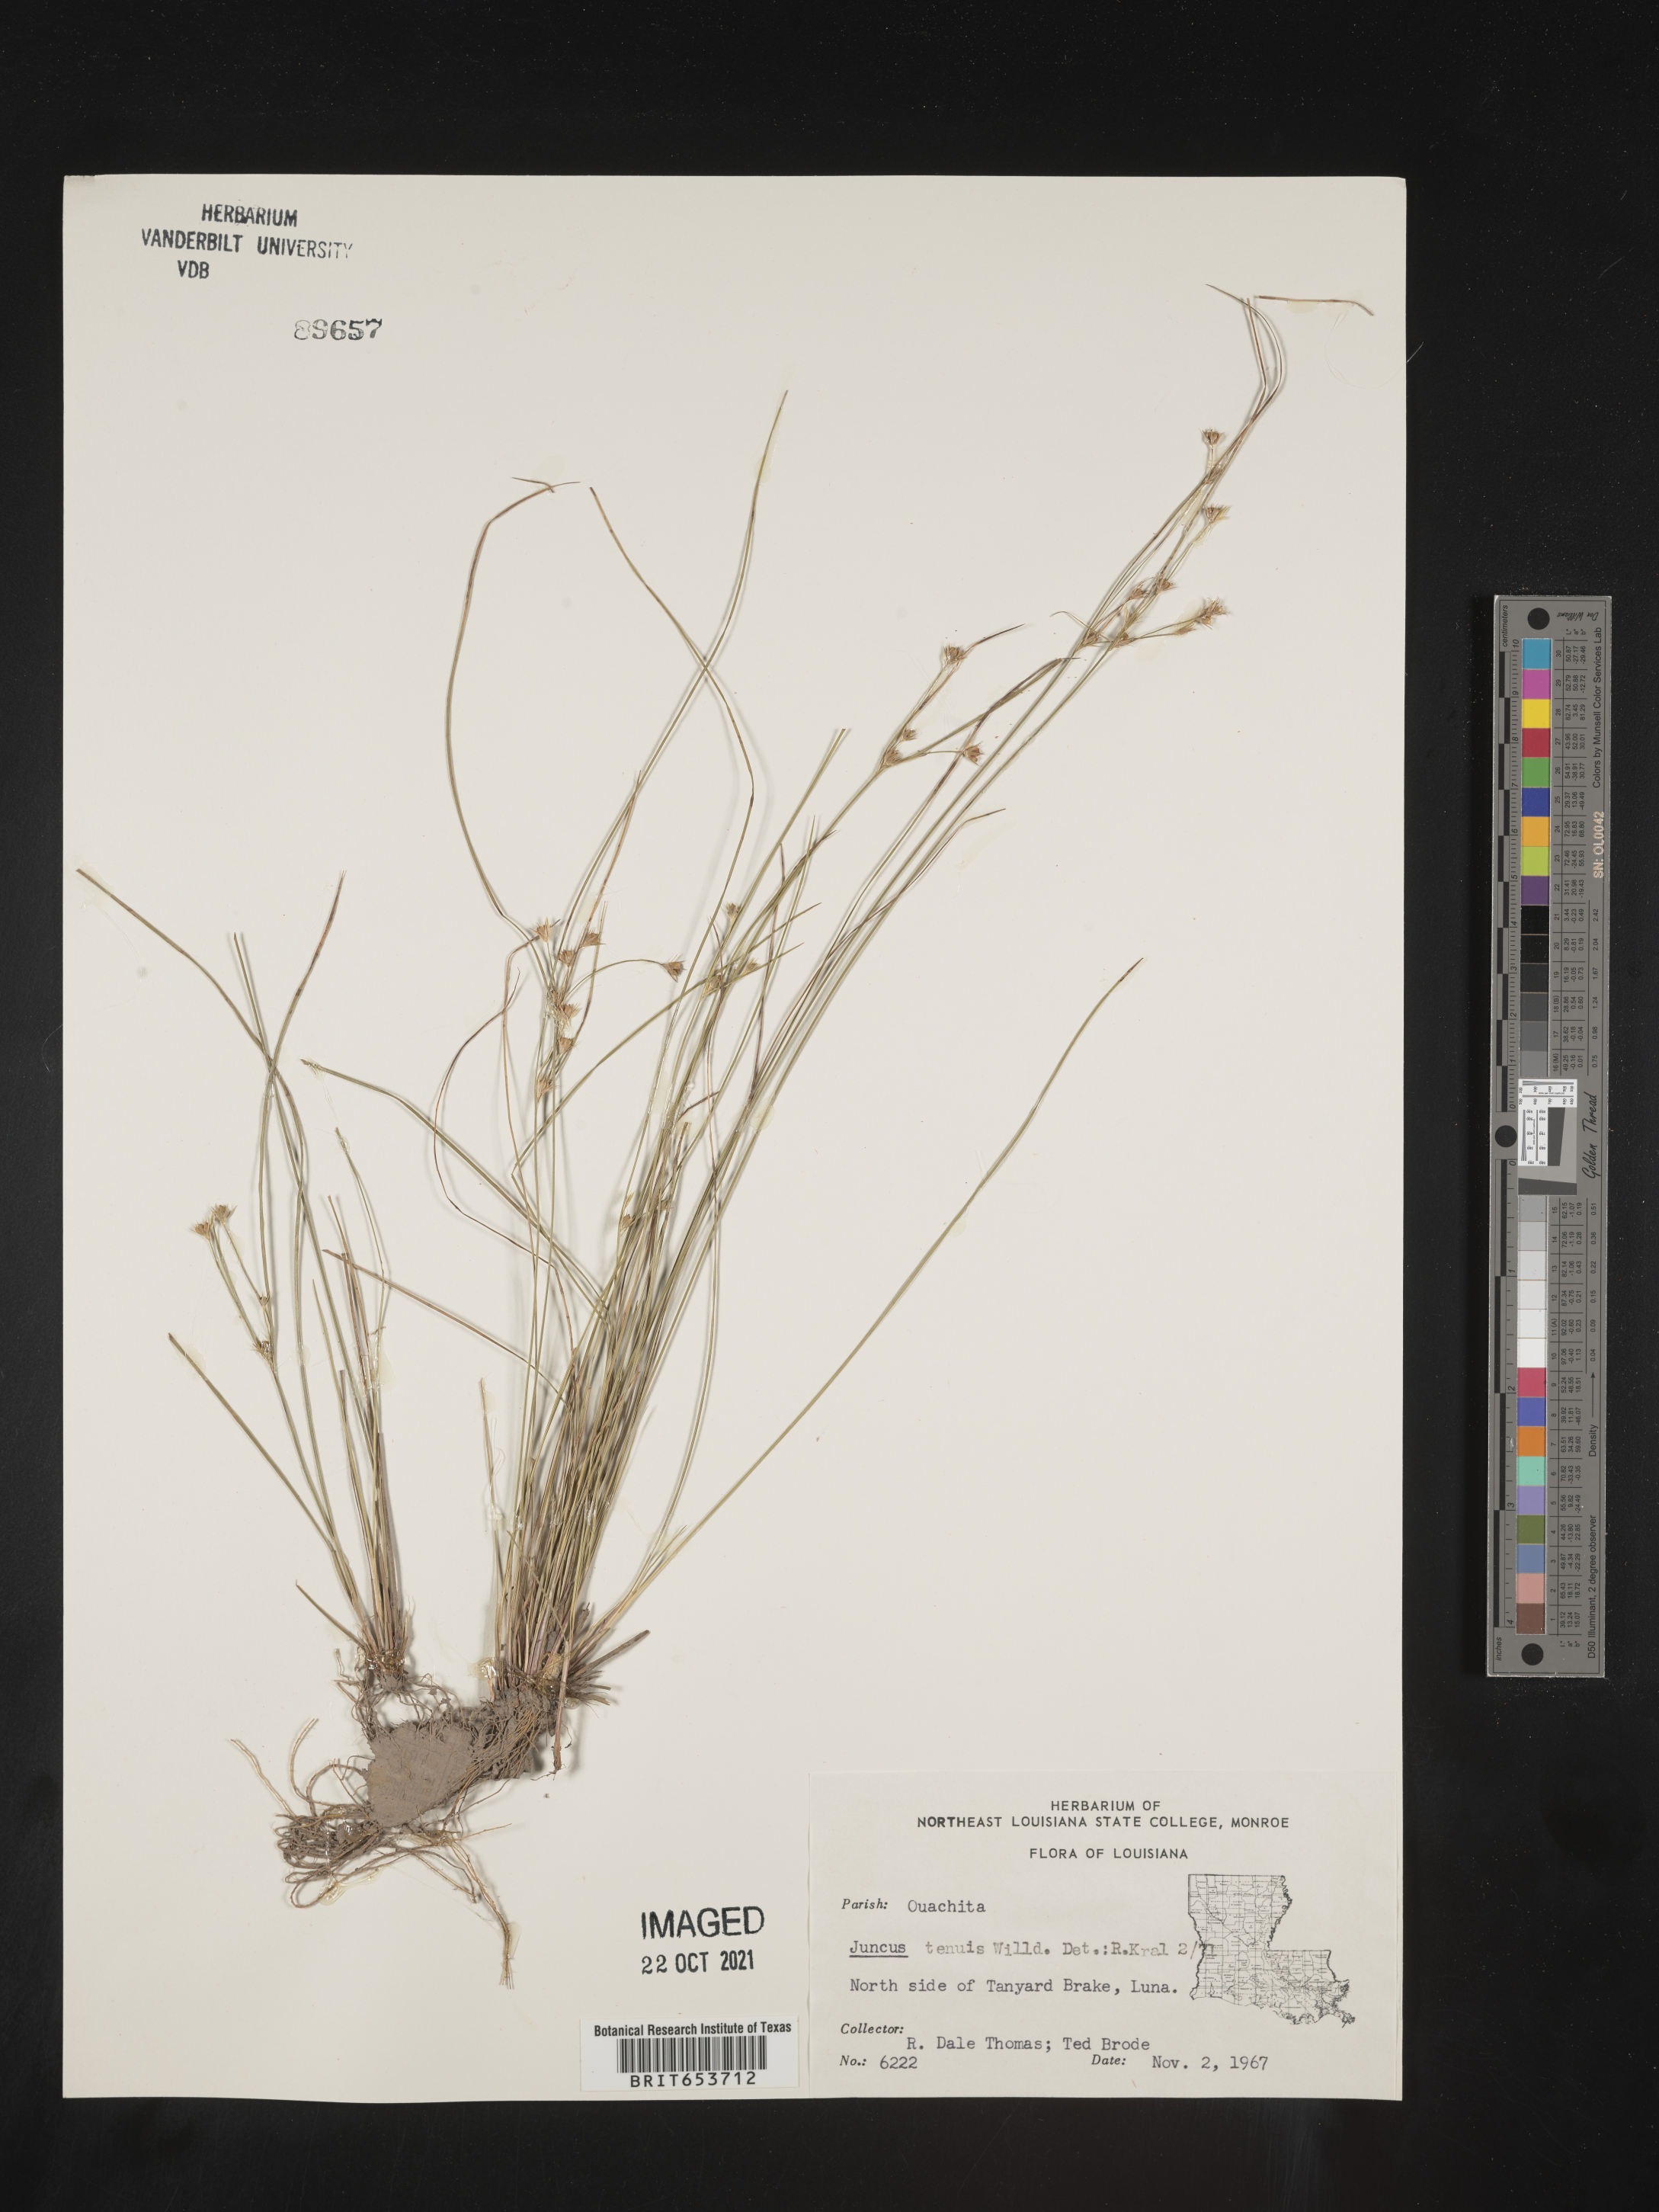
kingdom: Plantae
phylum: Tracheophyta
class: Liliopsida
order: Poales
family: Juncaceae
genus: Juncus
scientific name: Juncus tenuis
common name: Slender rush
